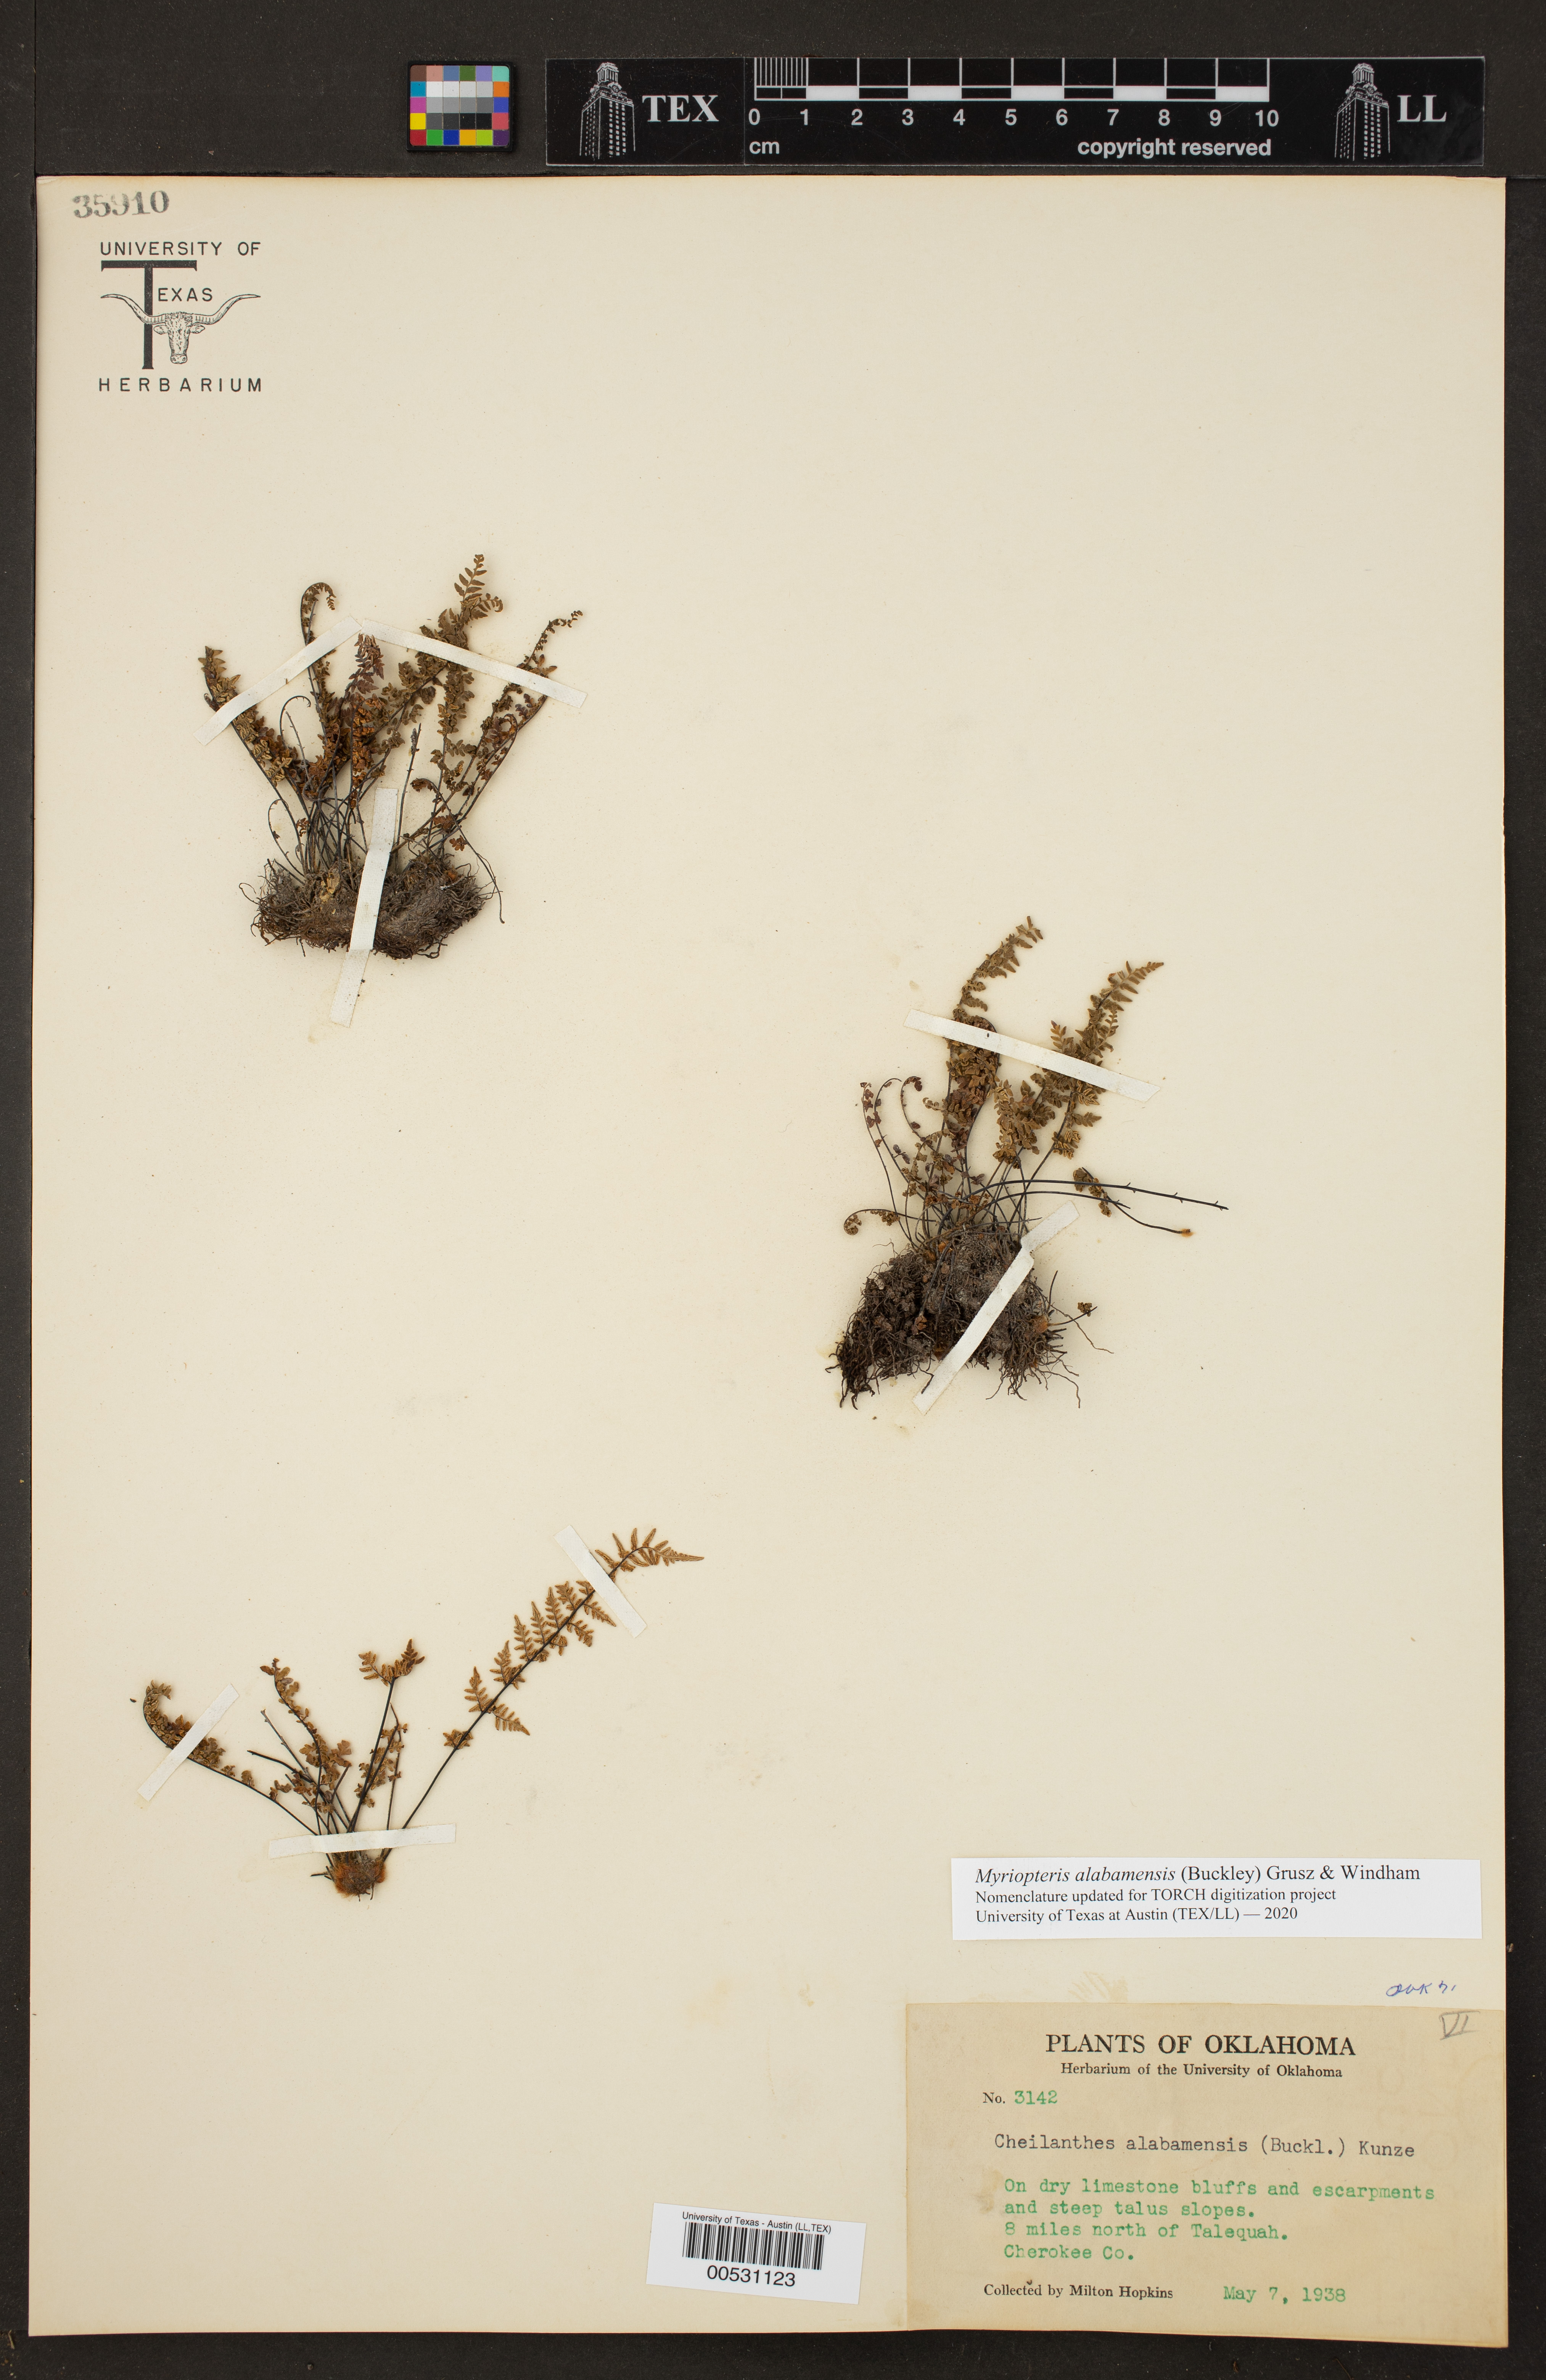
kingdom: Plantae
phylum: Tracheophyta
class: Polypodiopsida
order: Polypodiales
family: Pteridaceae
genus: Myriopteris
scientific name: Myriopteris alabamensis
